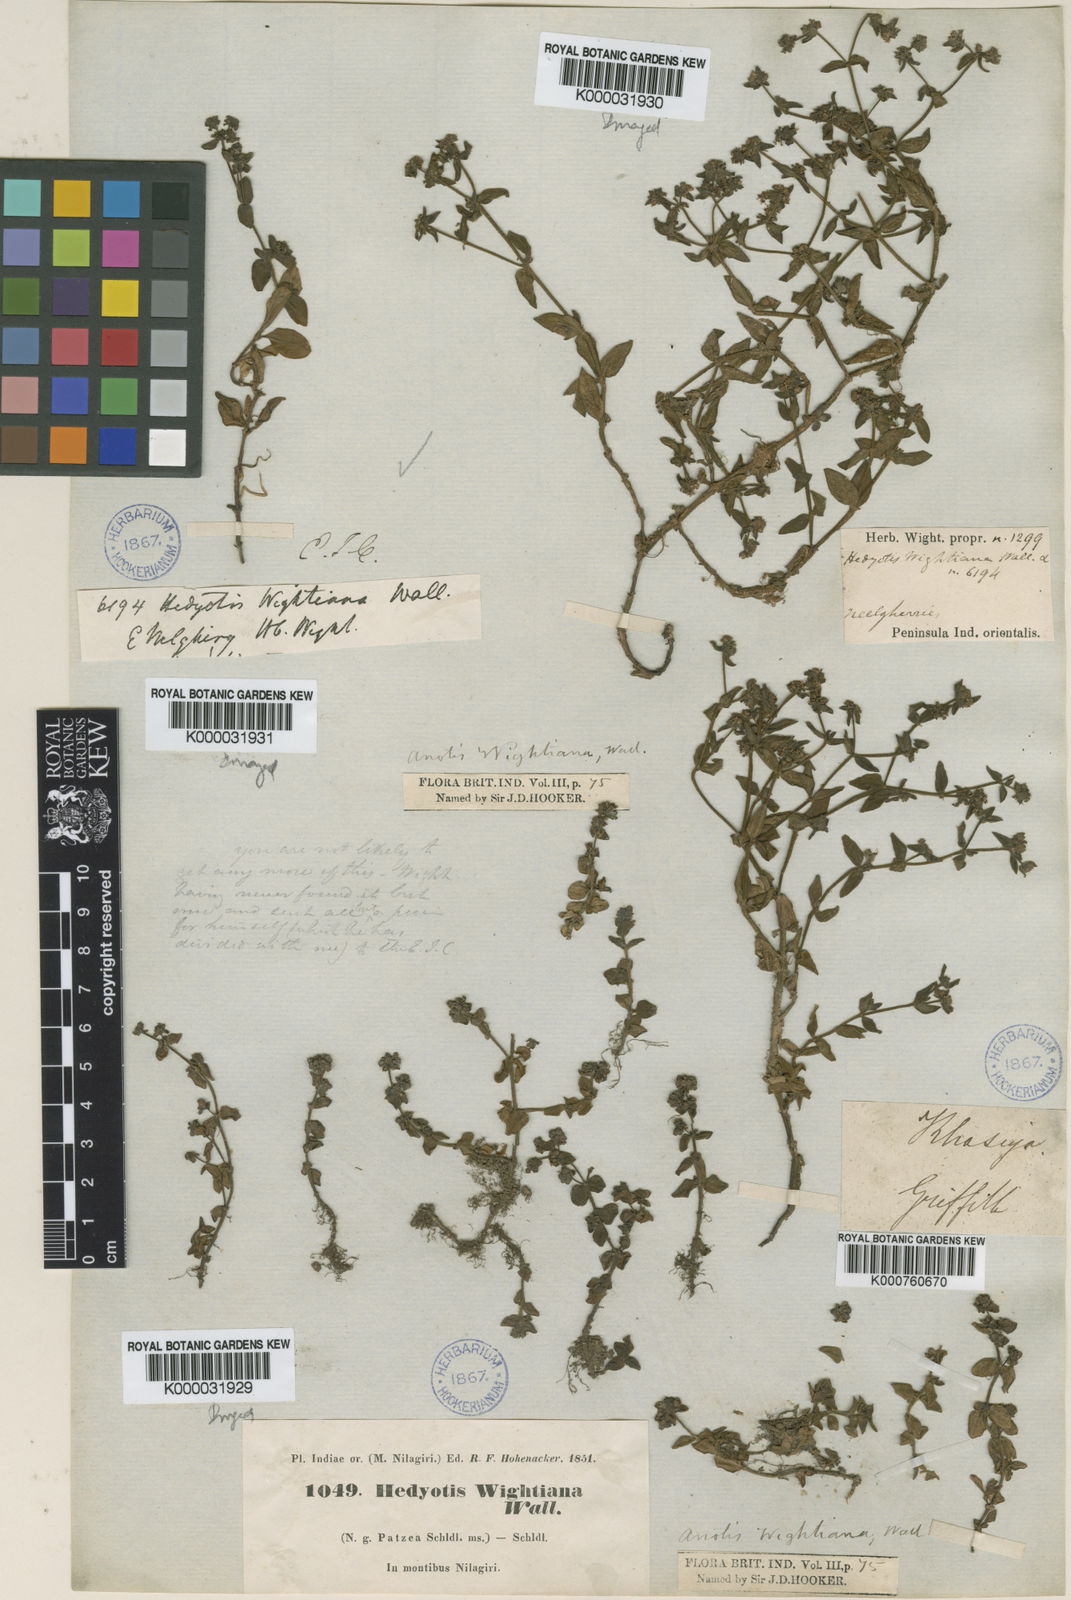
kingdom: Plantae
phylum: Tracheophyta
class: Magnoliopsida
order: Gentianales
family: Rubiaceae
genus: Neanotis
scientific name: Neanotis wightiana
